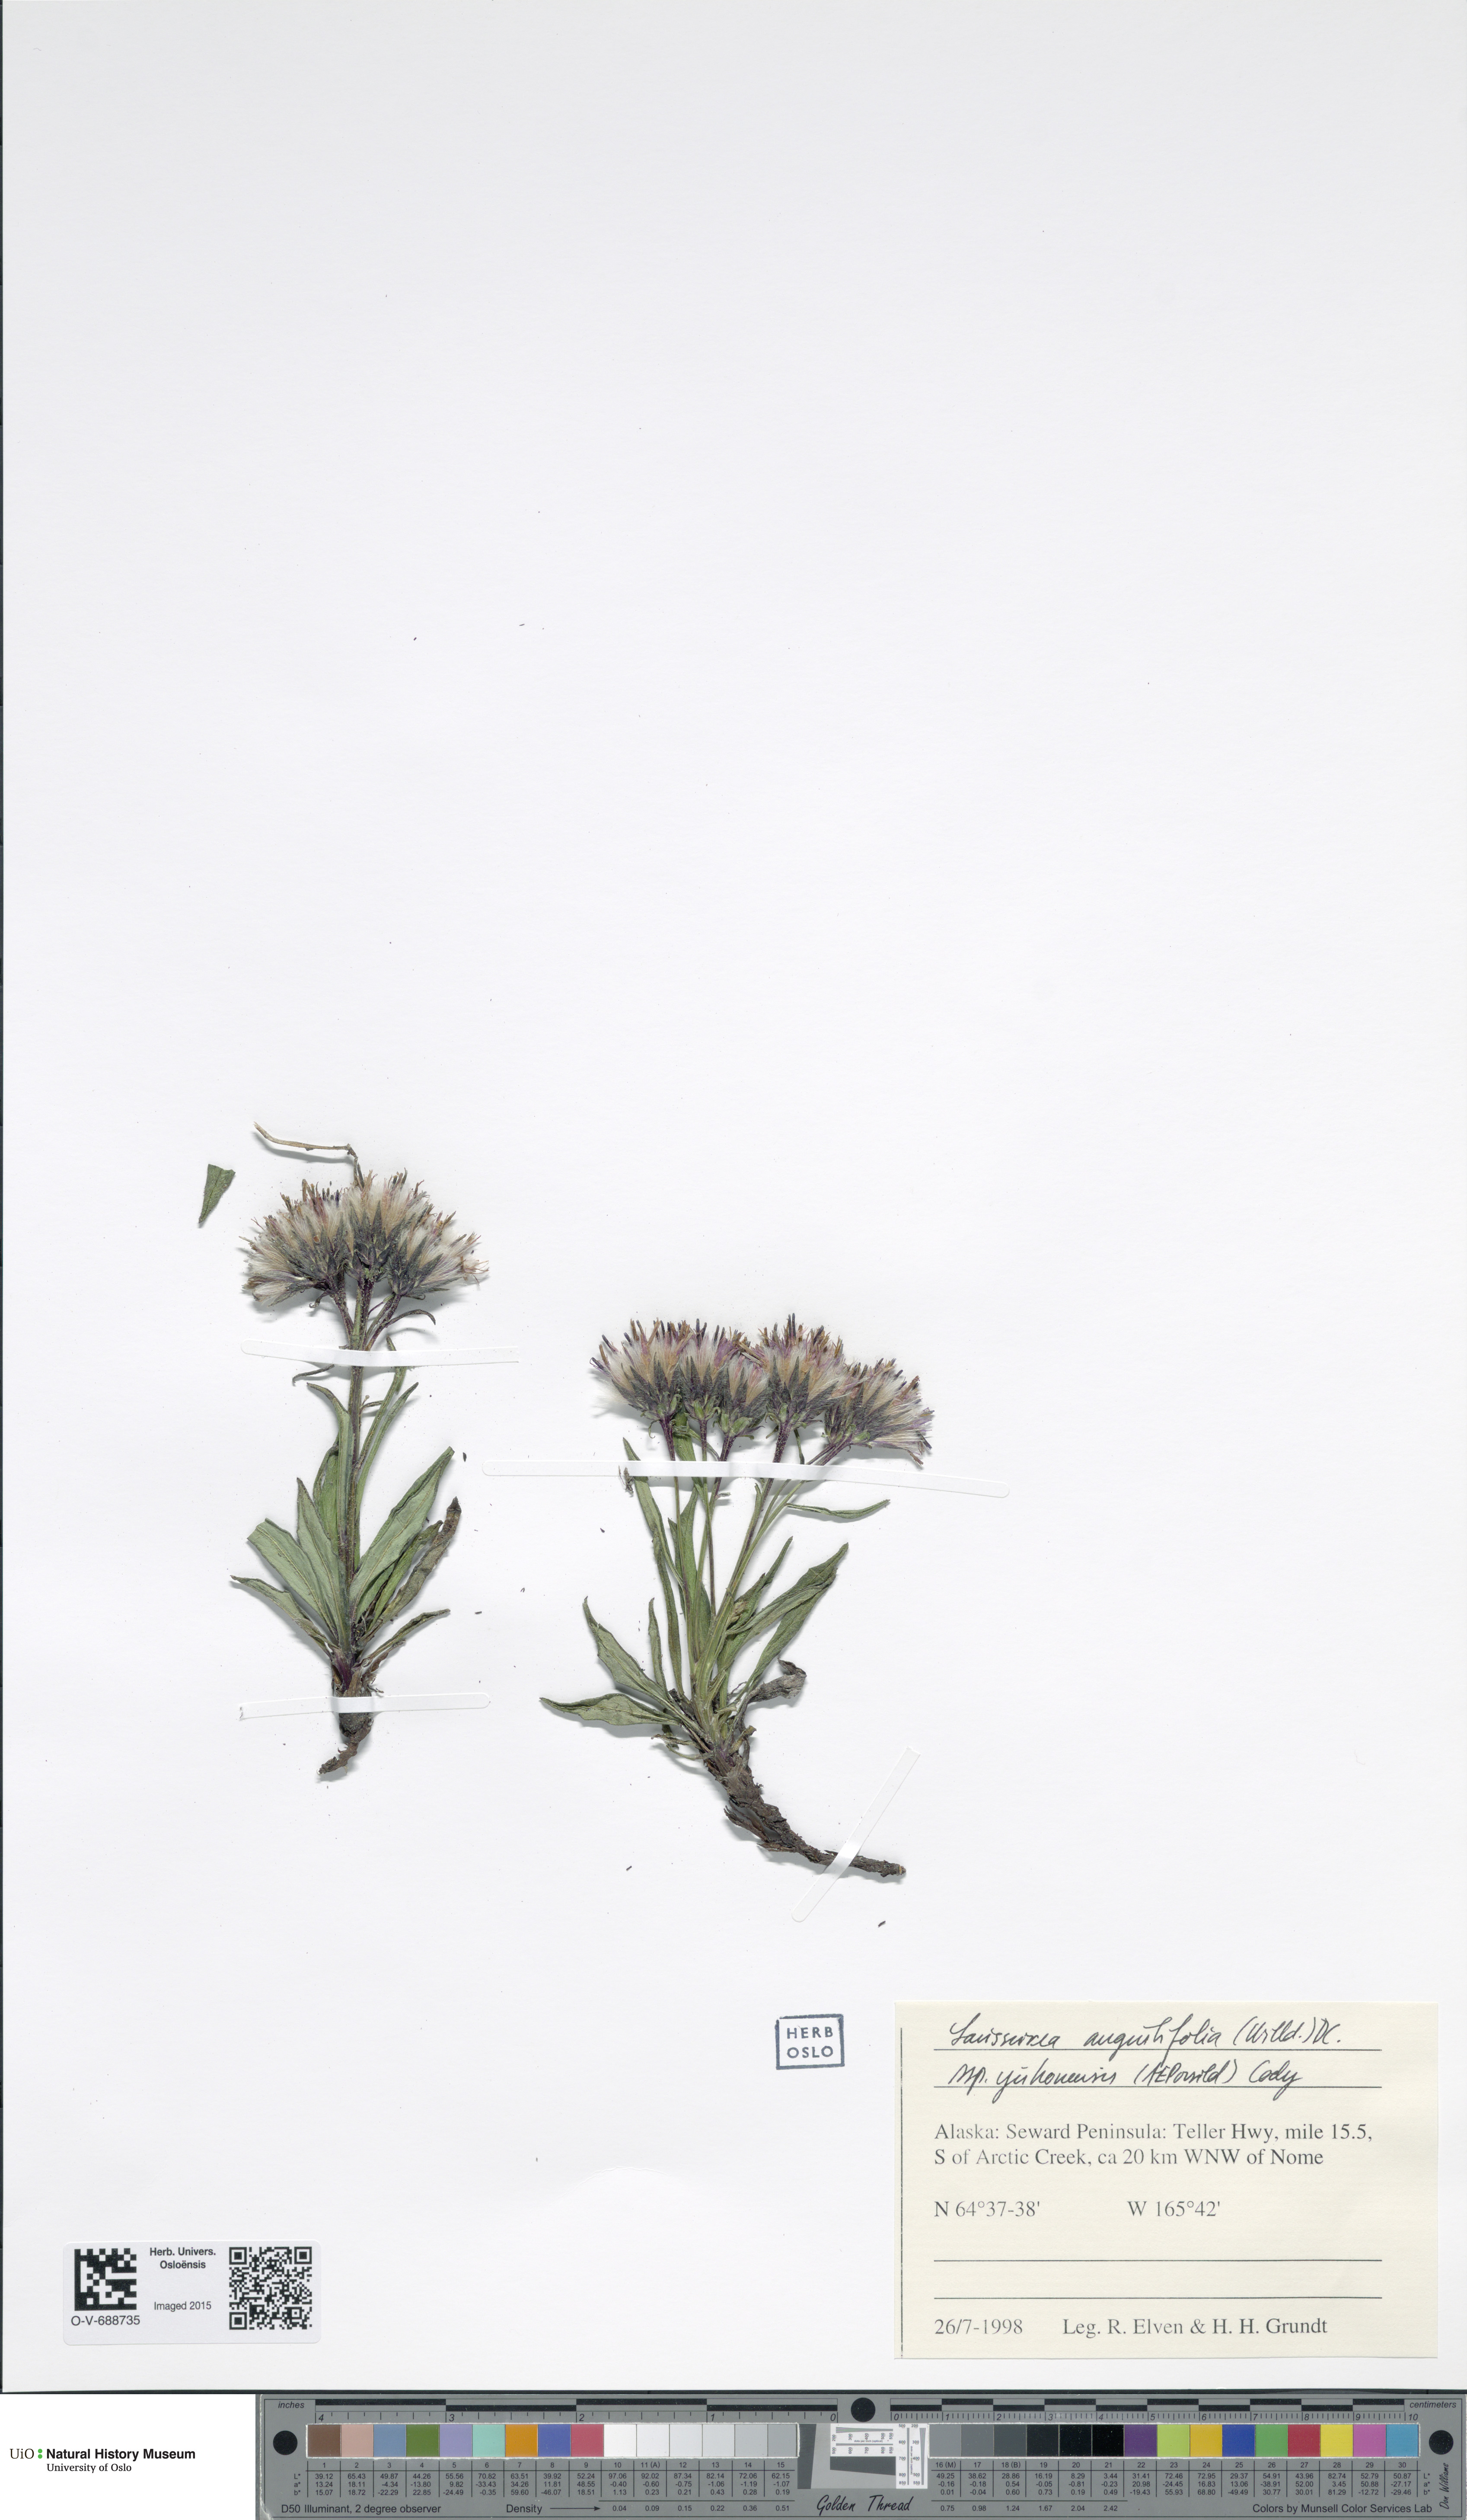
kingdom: Plantae
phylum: Tracheophyta
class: Magnoliopsida
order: Asterales
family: Asteraceae
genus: Saussurea
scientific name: Saussurea angustifolia
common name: Common saussurea
